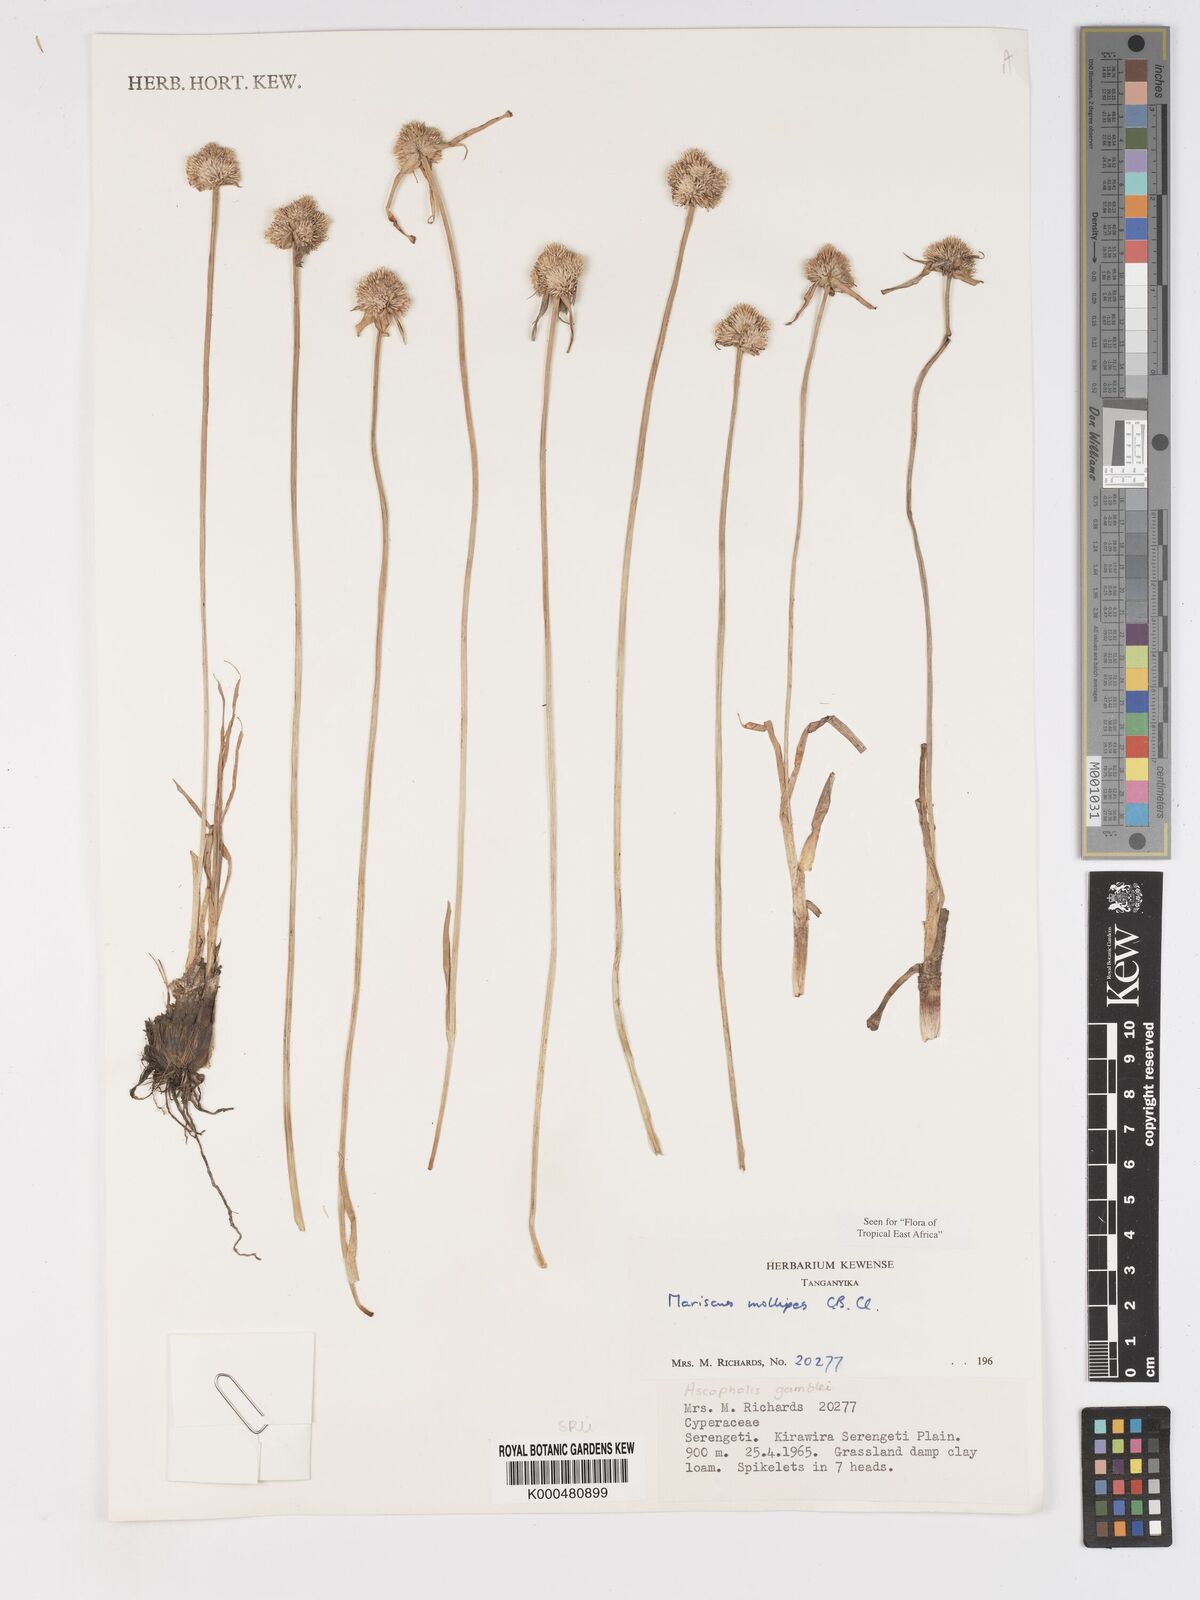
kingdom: Plantae
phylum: Tracheophyta
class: Liliopsida
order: Poales
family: Cyperaceae
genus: Cyperus
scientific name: Cyperus mollipes
